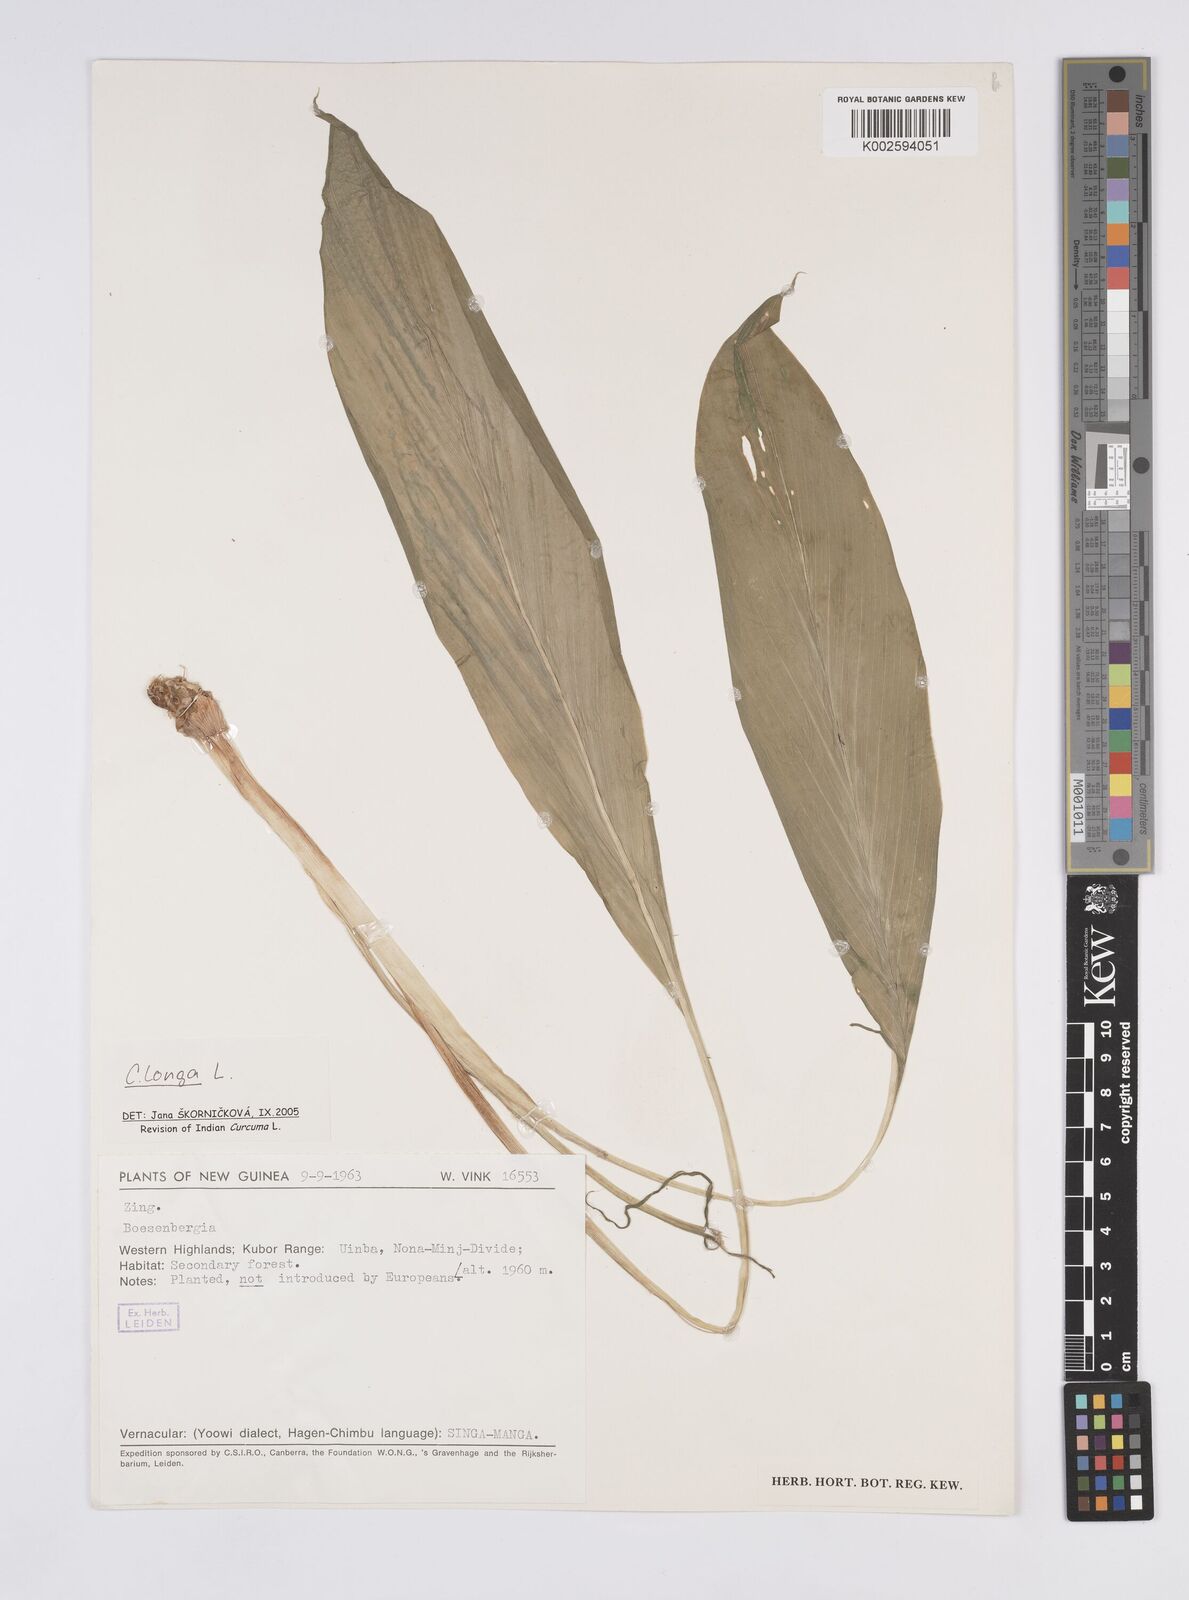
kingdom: Plantae
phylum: Tracheophyta
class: Liliopsida
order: Zingiberales
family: Zingiberaceae
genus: Curcuma
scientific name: Curcuma
